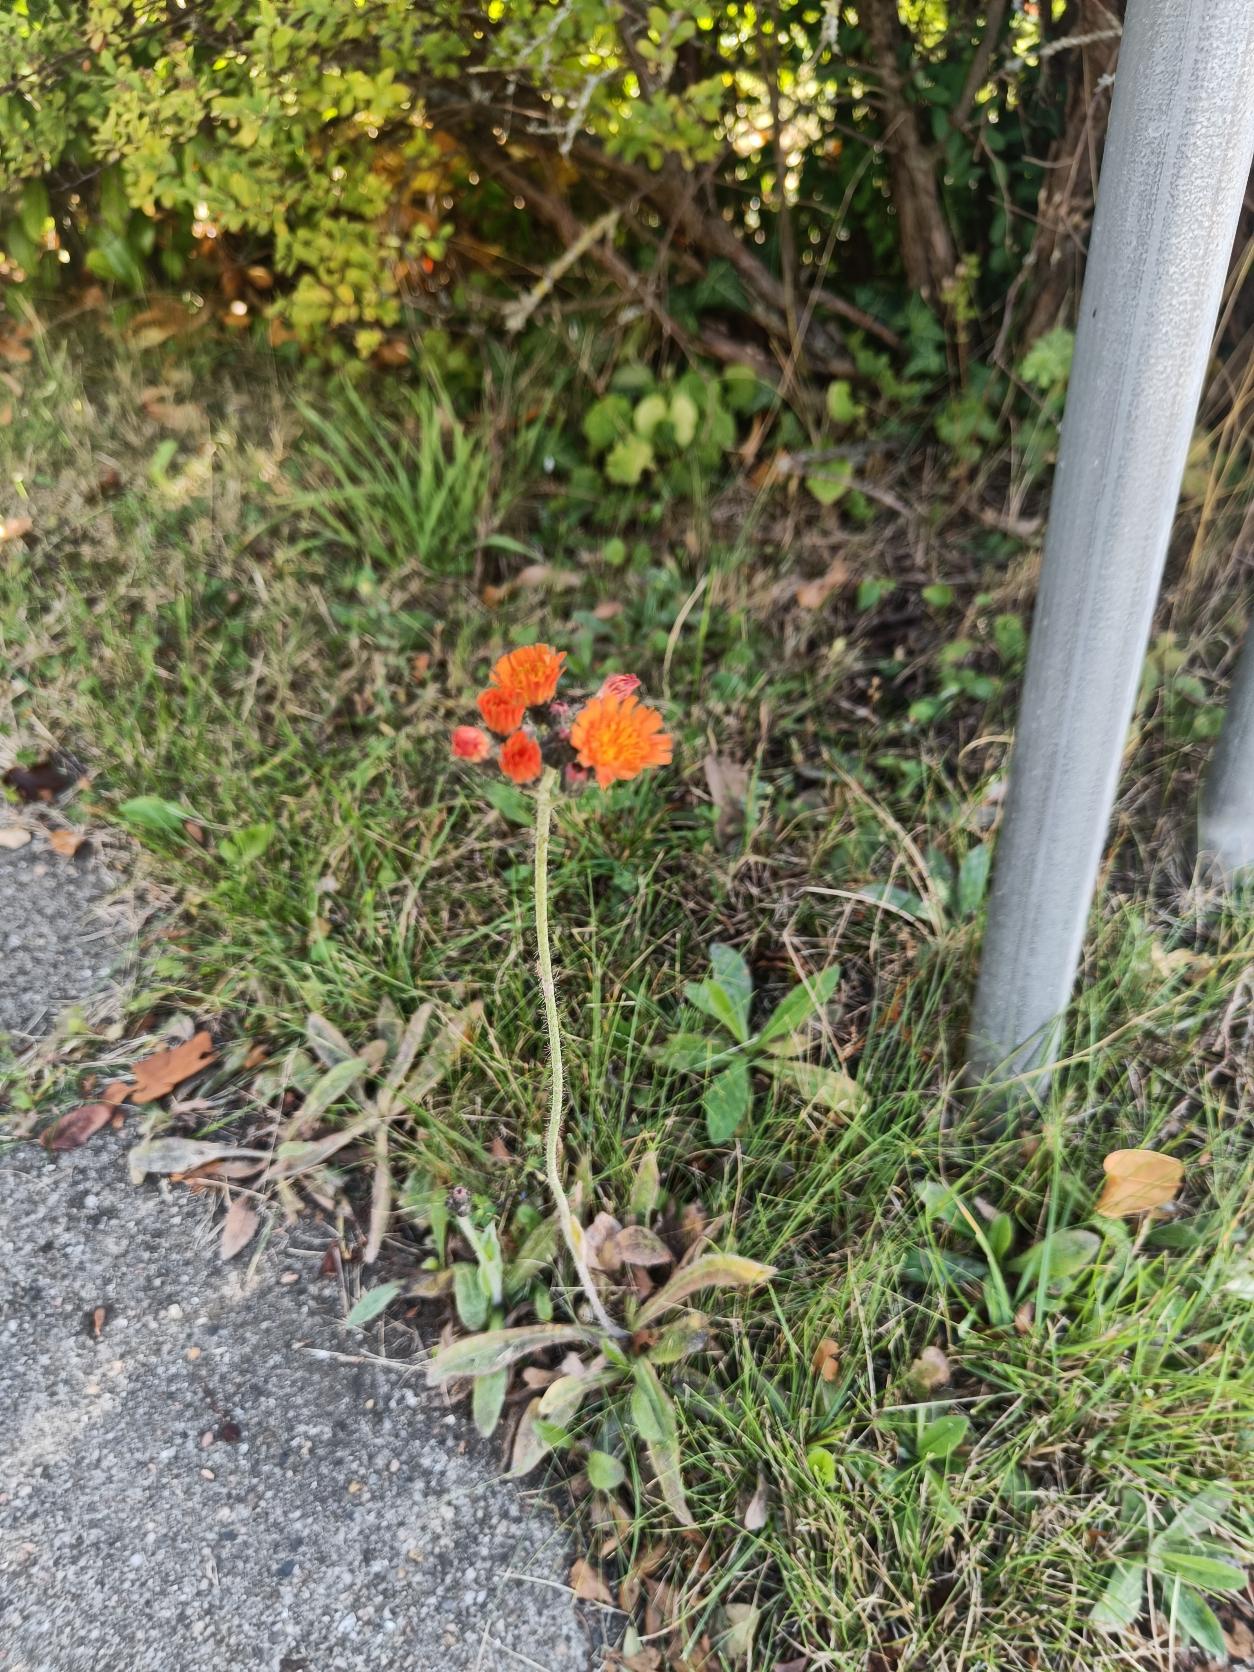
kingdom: Plantae
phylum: Tracheophyta
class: Magnoliopsida
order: Asterales
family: Asteraceae
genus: Pilosella
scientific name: Pilosella aurantiaca
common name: Pomerans-høgeurt
